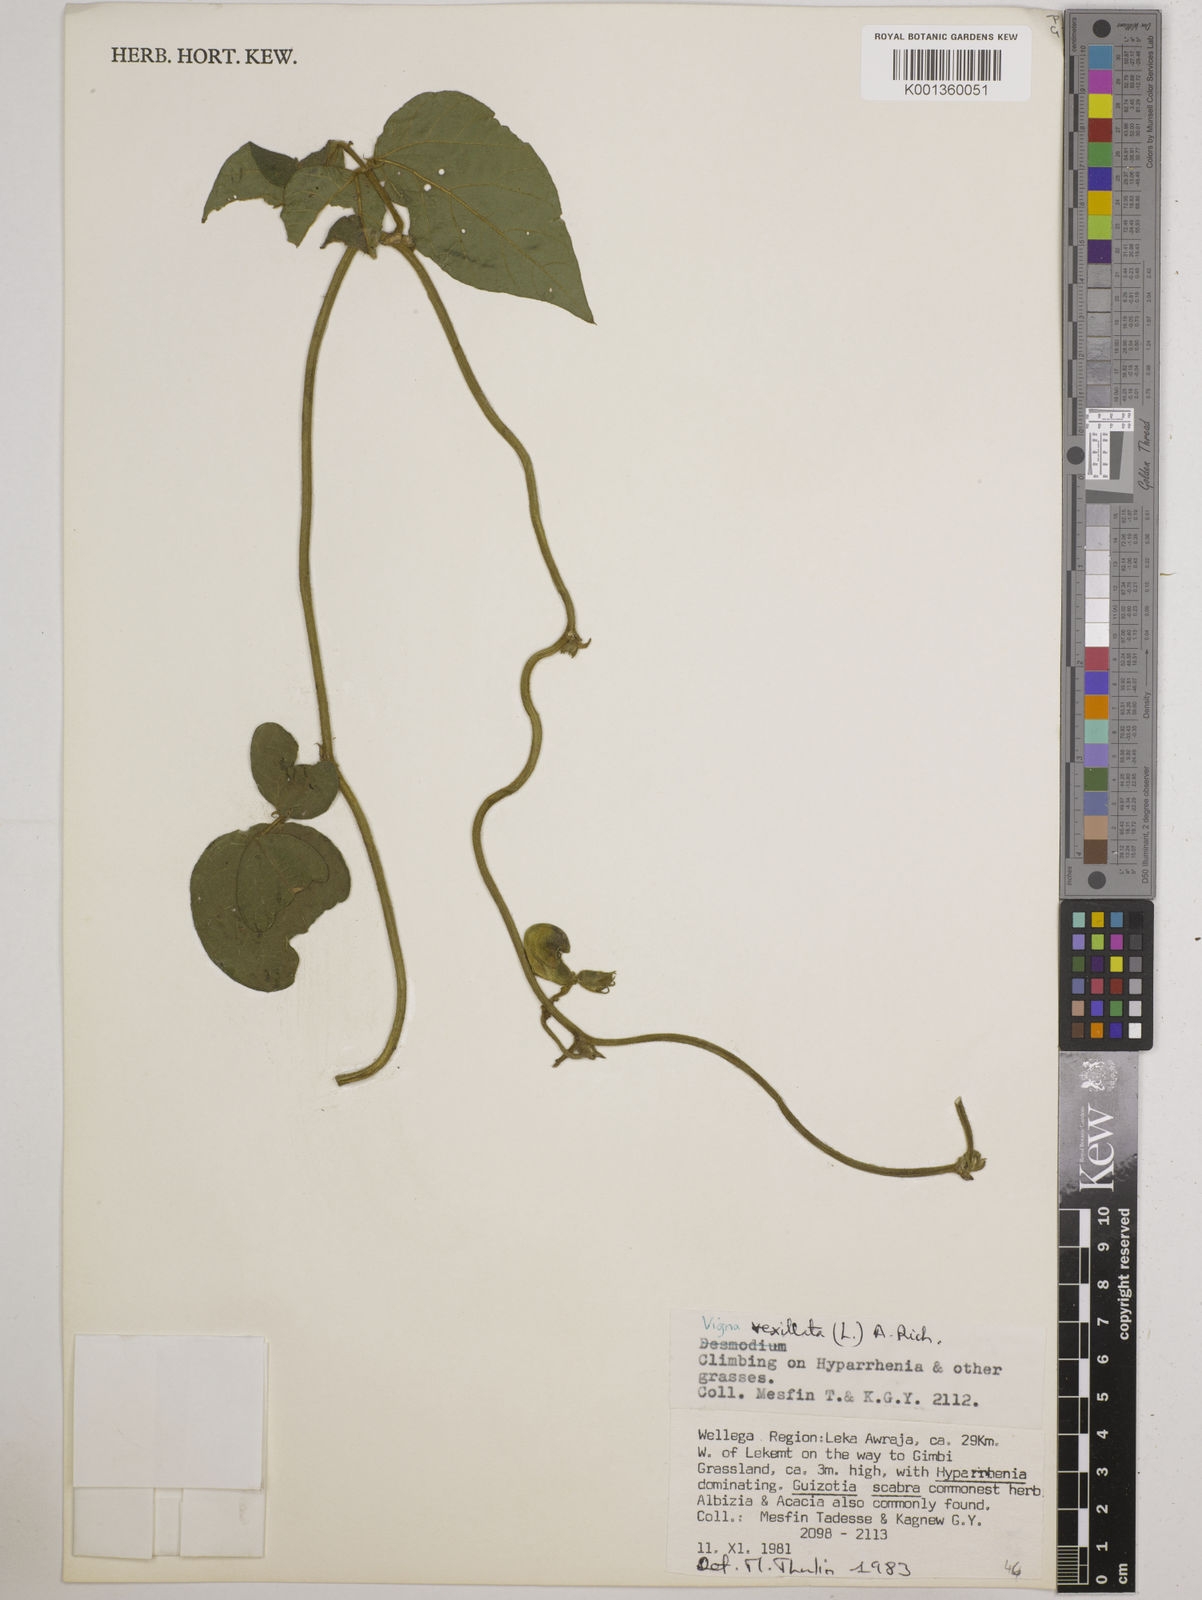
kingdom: Plantae
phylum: Tracheophyta
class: Magnoliopsida
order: Fabales
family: Fabaceae
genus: Vigna
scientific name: Vigna vexillata
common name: Zombi pea
